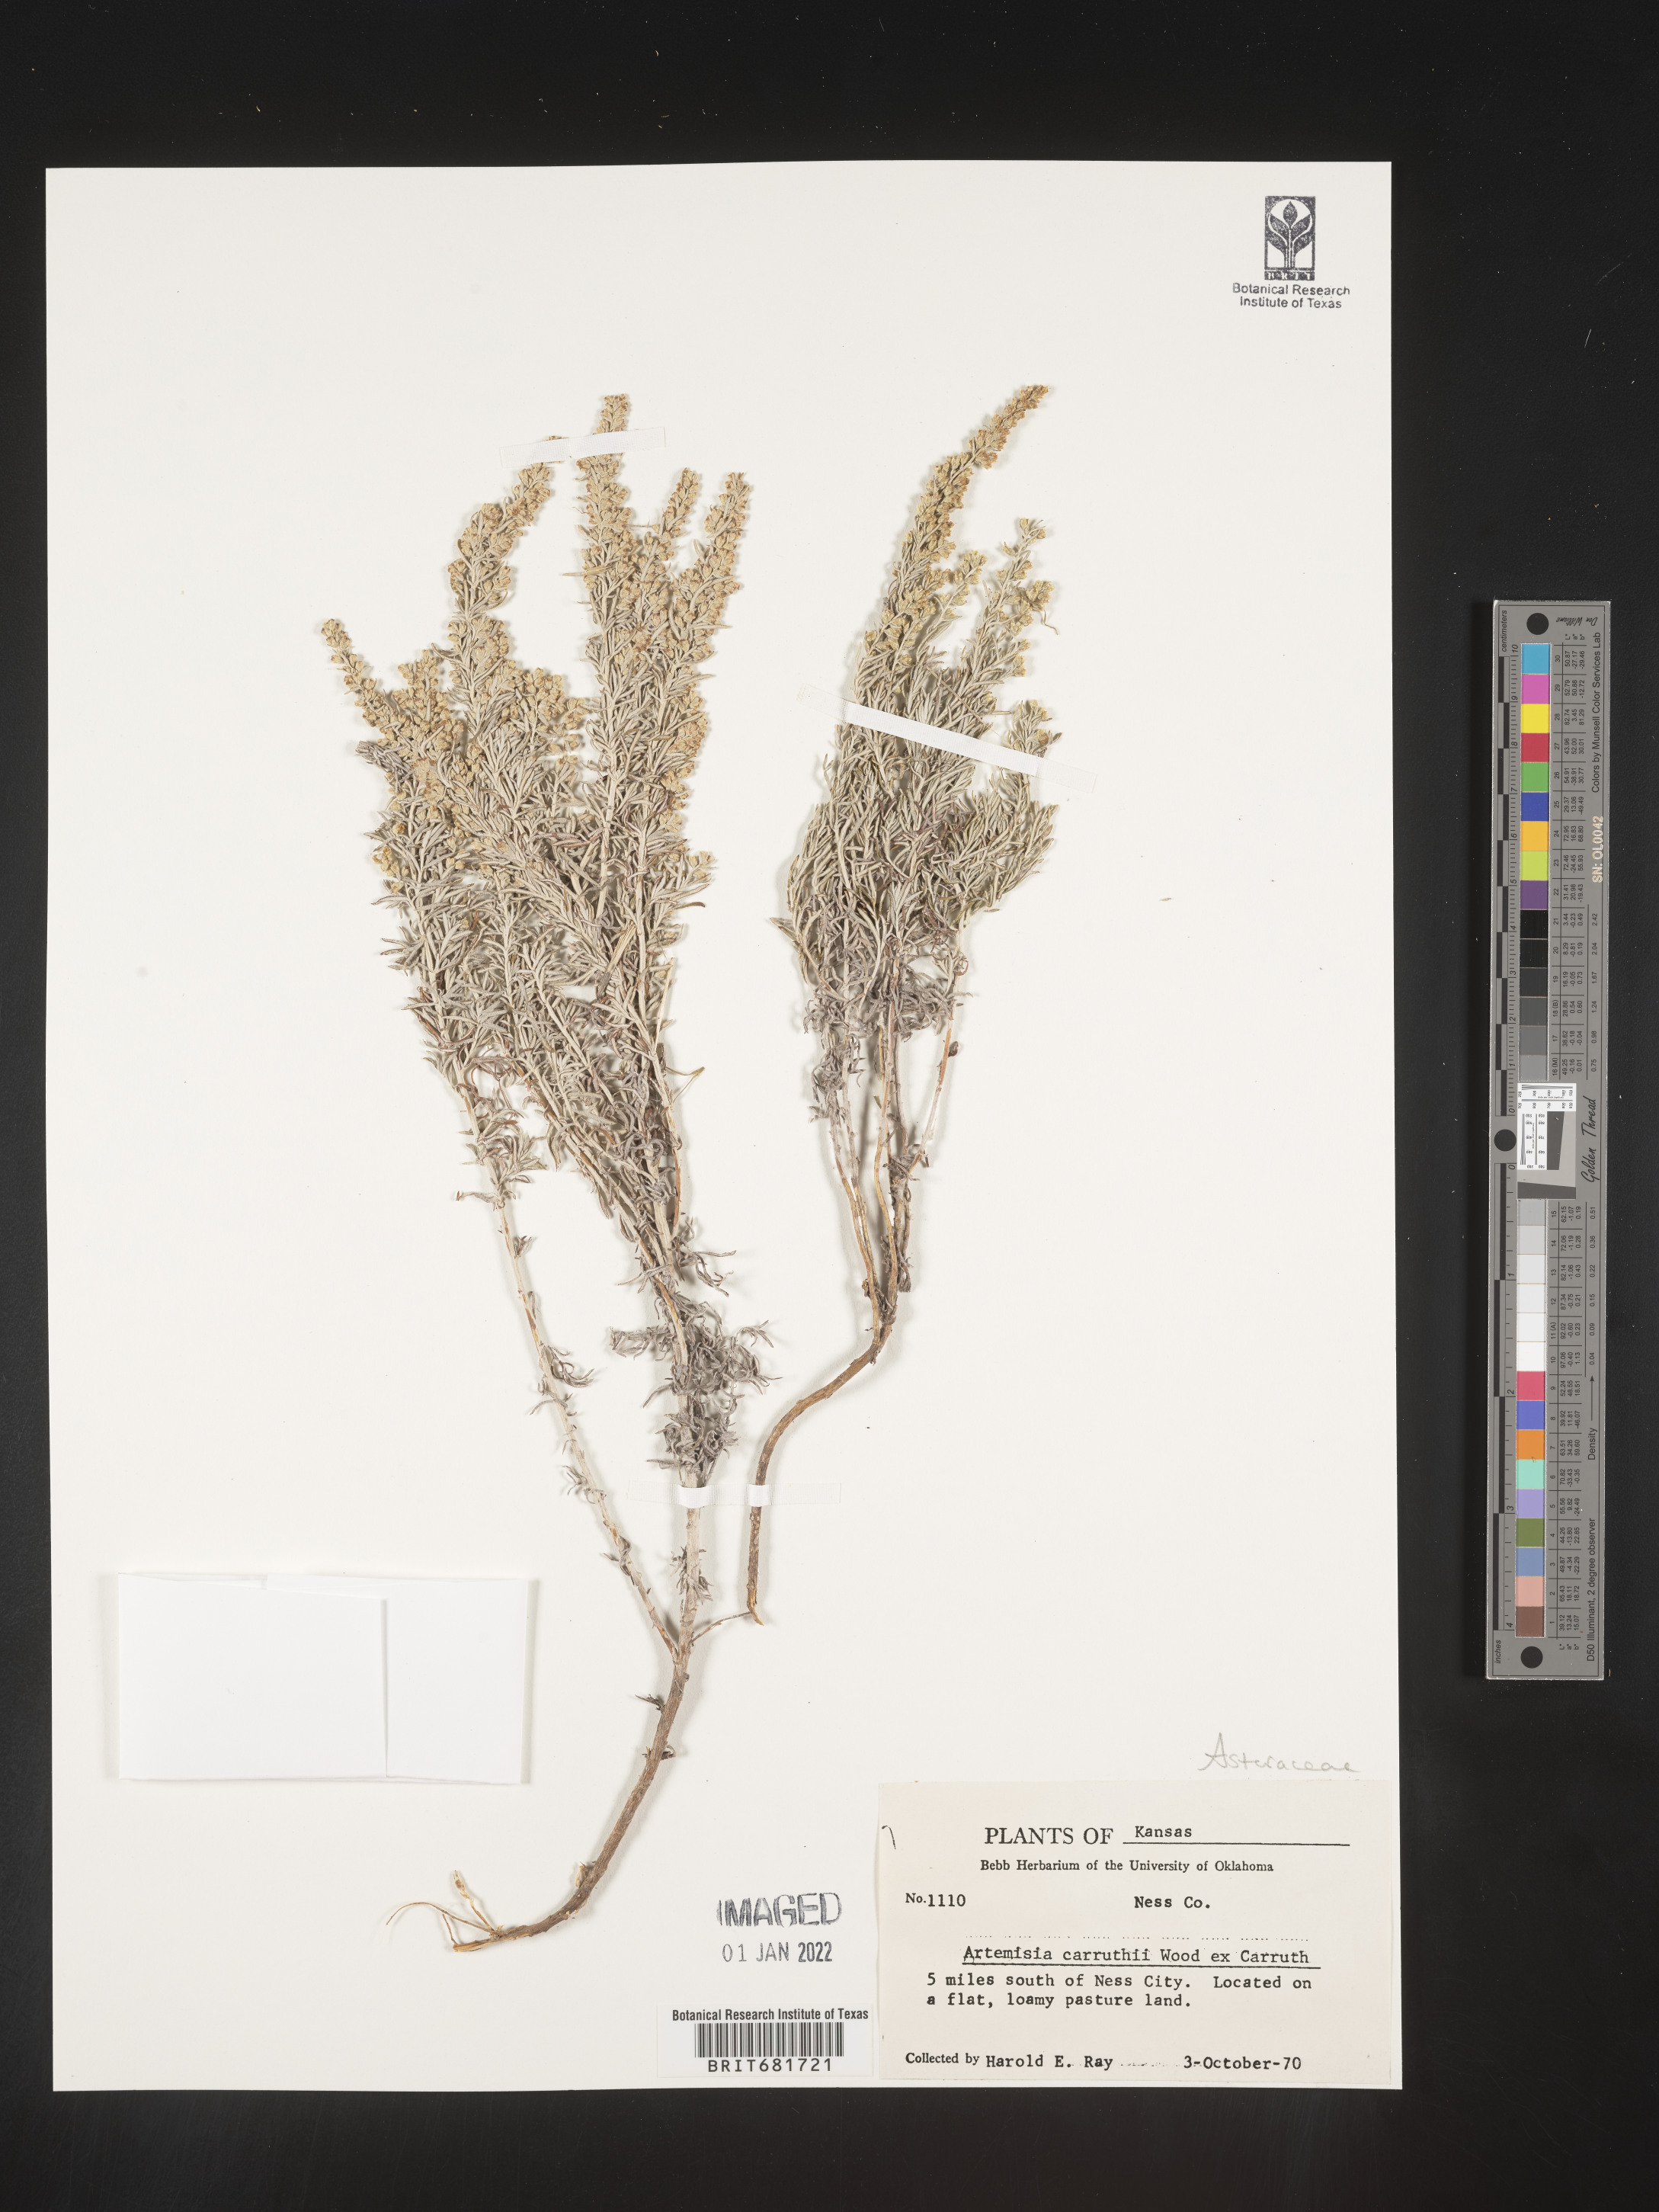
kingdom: Plantae
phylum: Tracheophyta
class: Magnoliopsida
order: Asterales
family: Asteraceae
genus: Artemisia
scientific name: Artemisia carruthii
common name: Carruth wormwood
